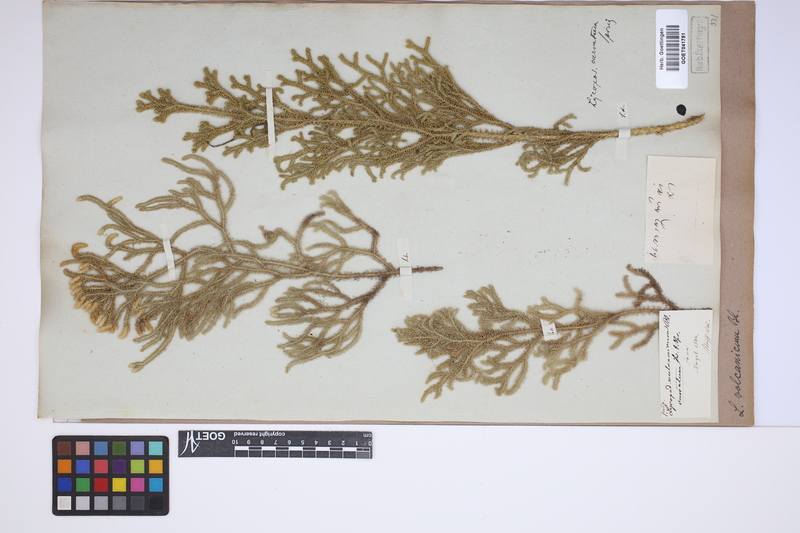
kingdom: Plantae
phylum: Tracheophyta
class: Lycopodiopsida
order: Lycopodiales
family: Lycopodiaceae
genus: Palhinhaea
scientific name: Palhinhaea cernua
